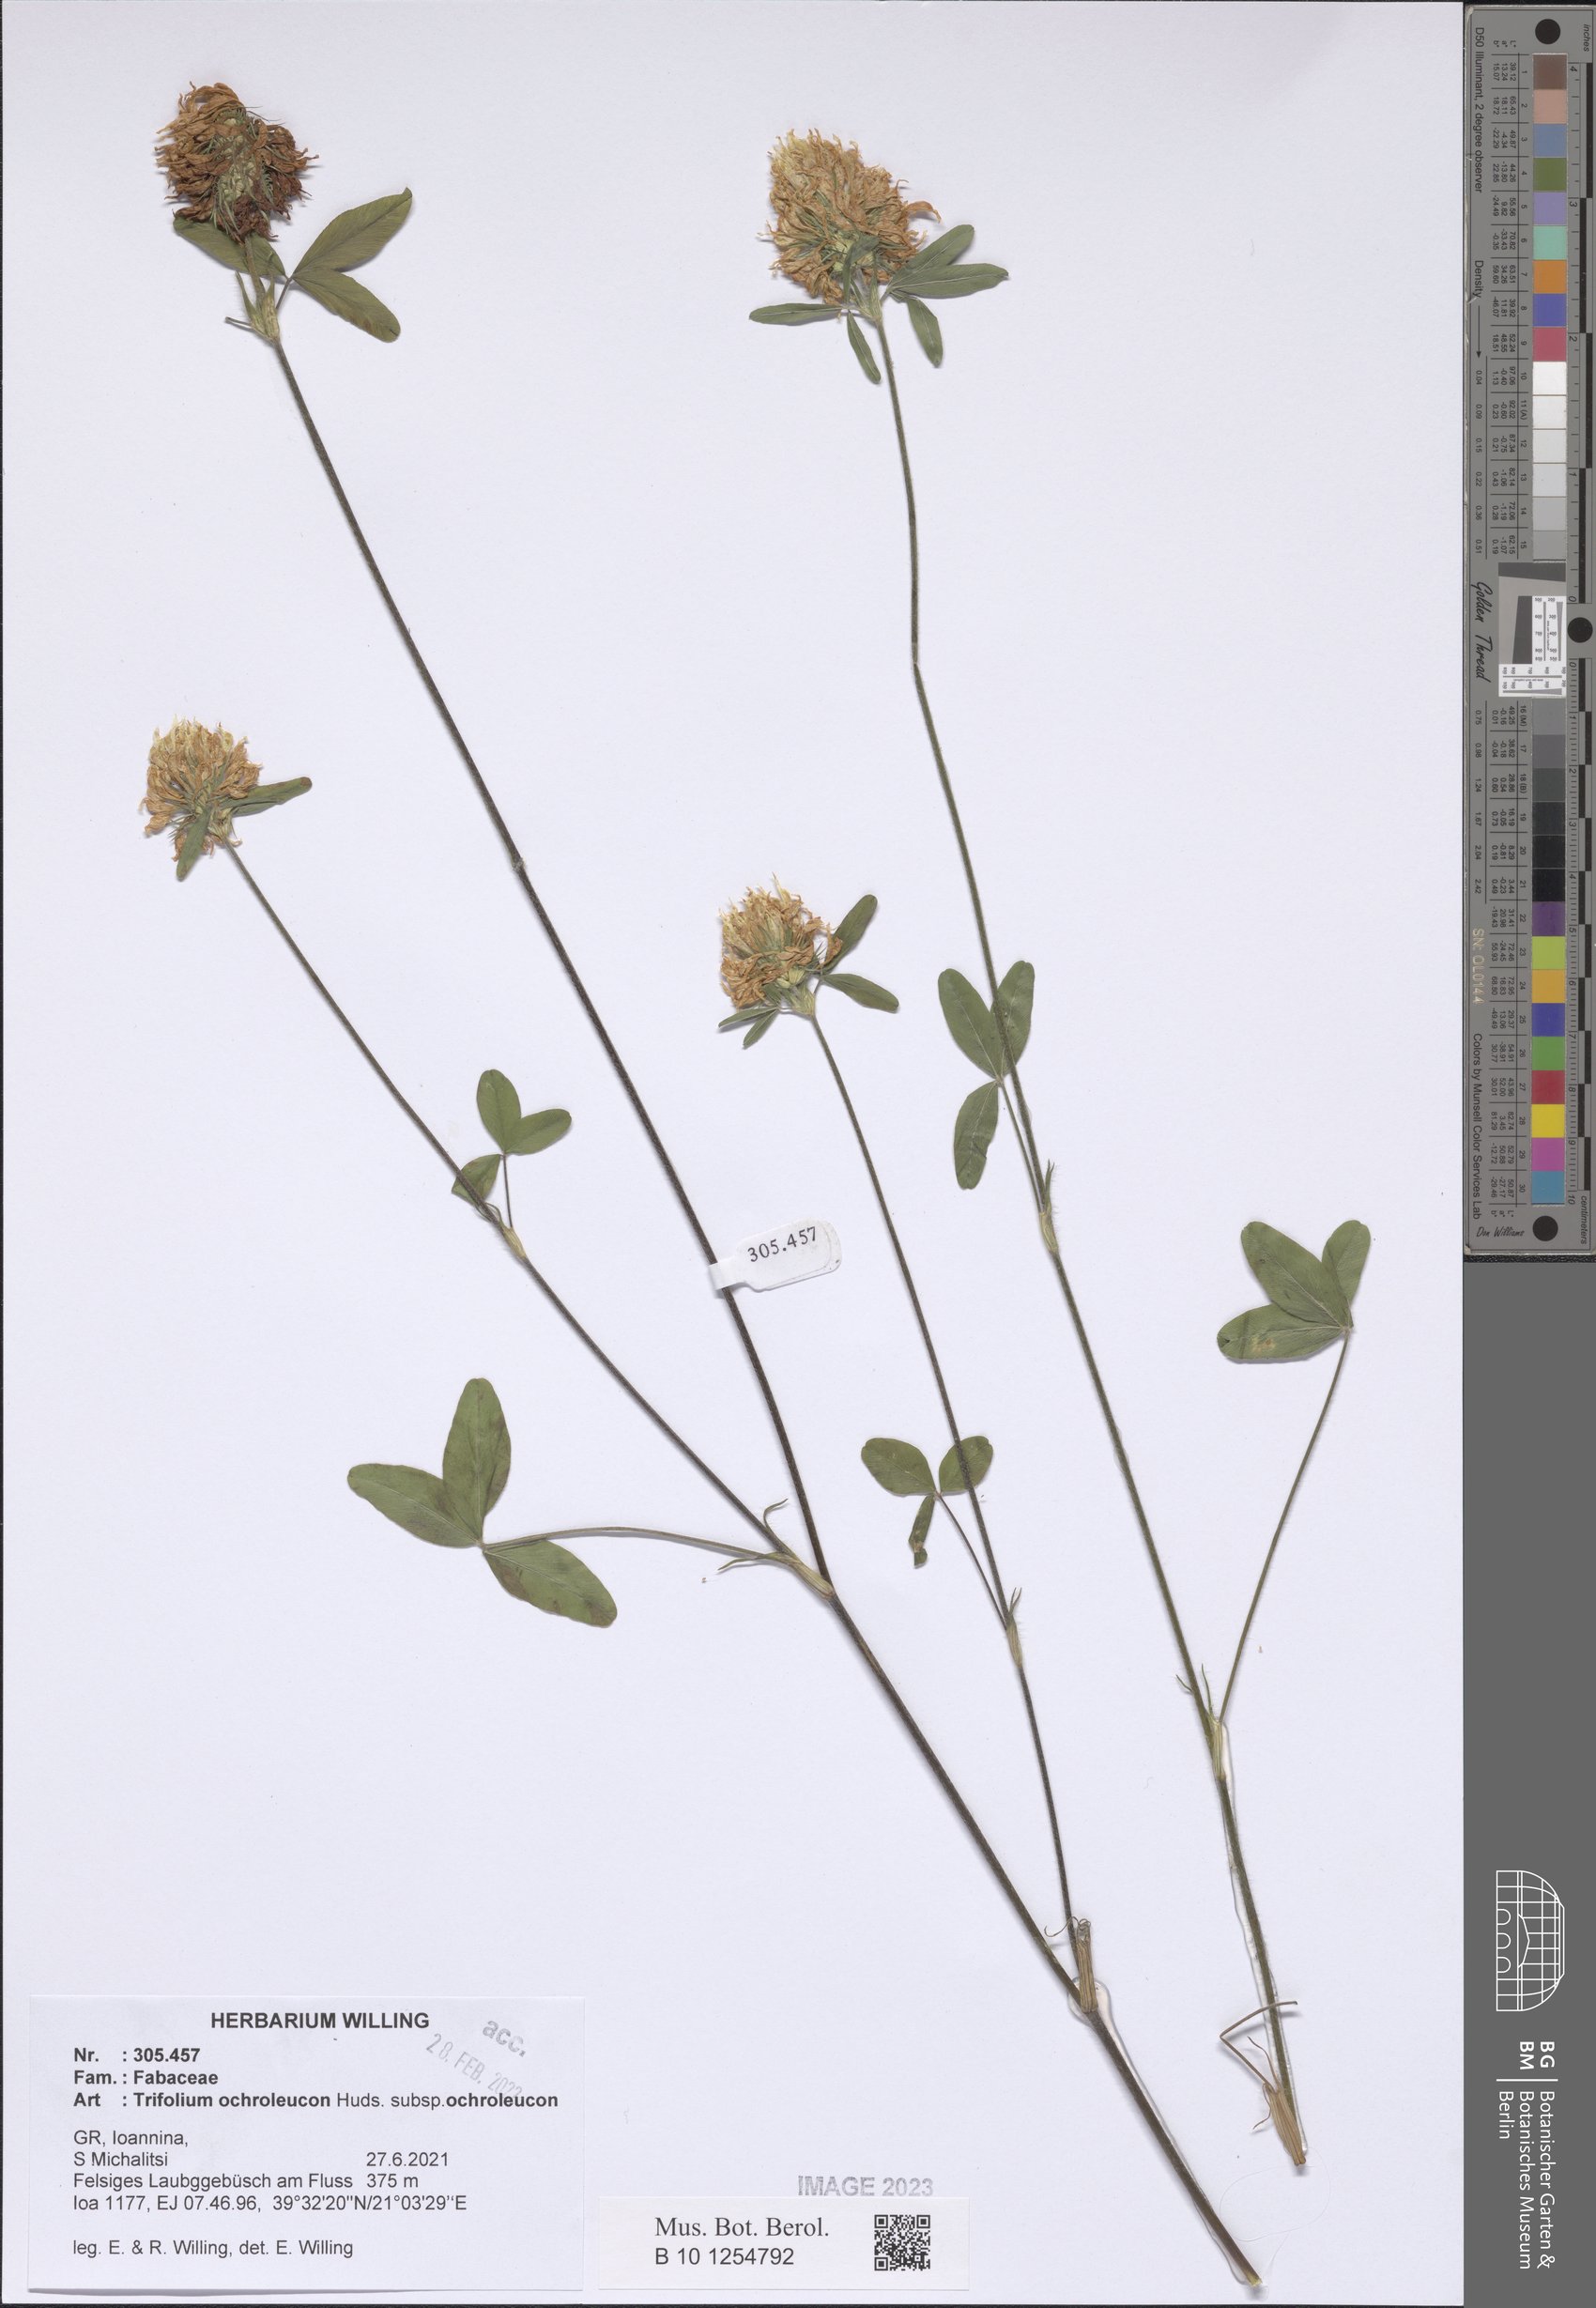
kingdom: Plantae
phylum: Tracheophyta
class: Magnoliopsida
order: Fabales
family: Fabaceae
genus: Trifolium
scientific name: Trifolium ochroleucon
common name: Sulphur clover
